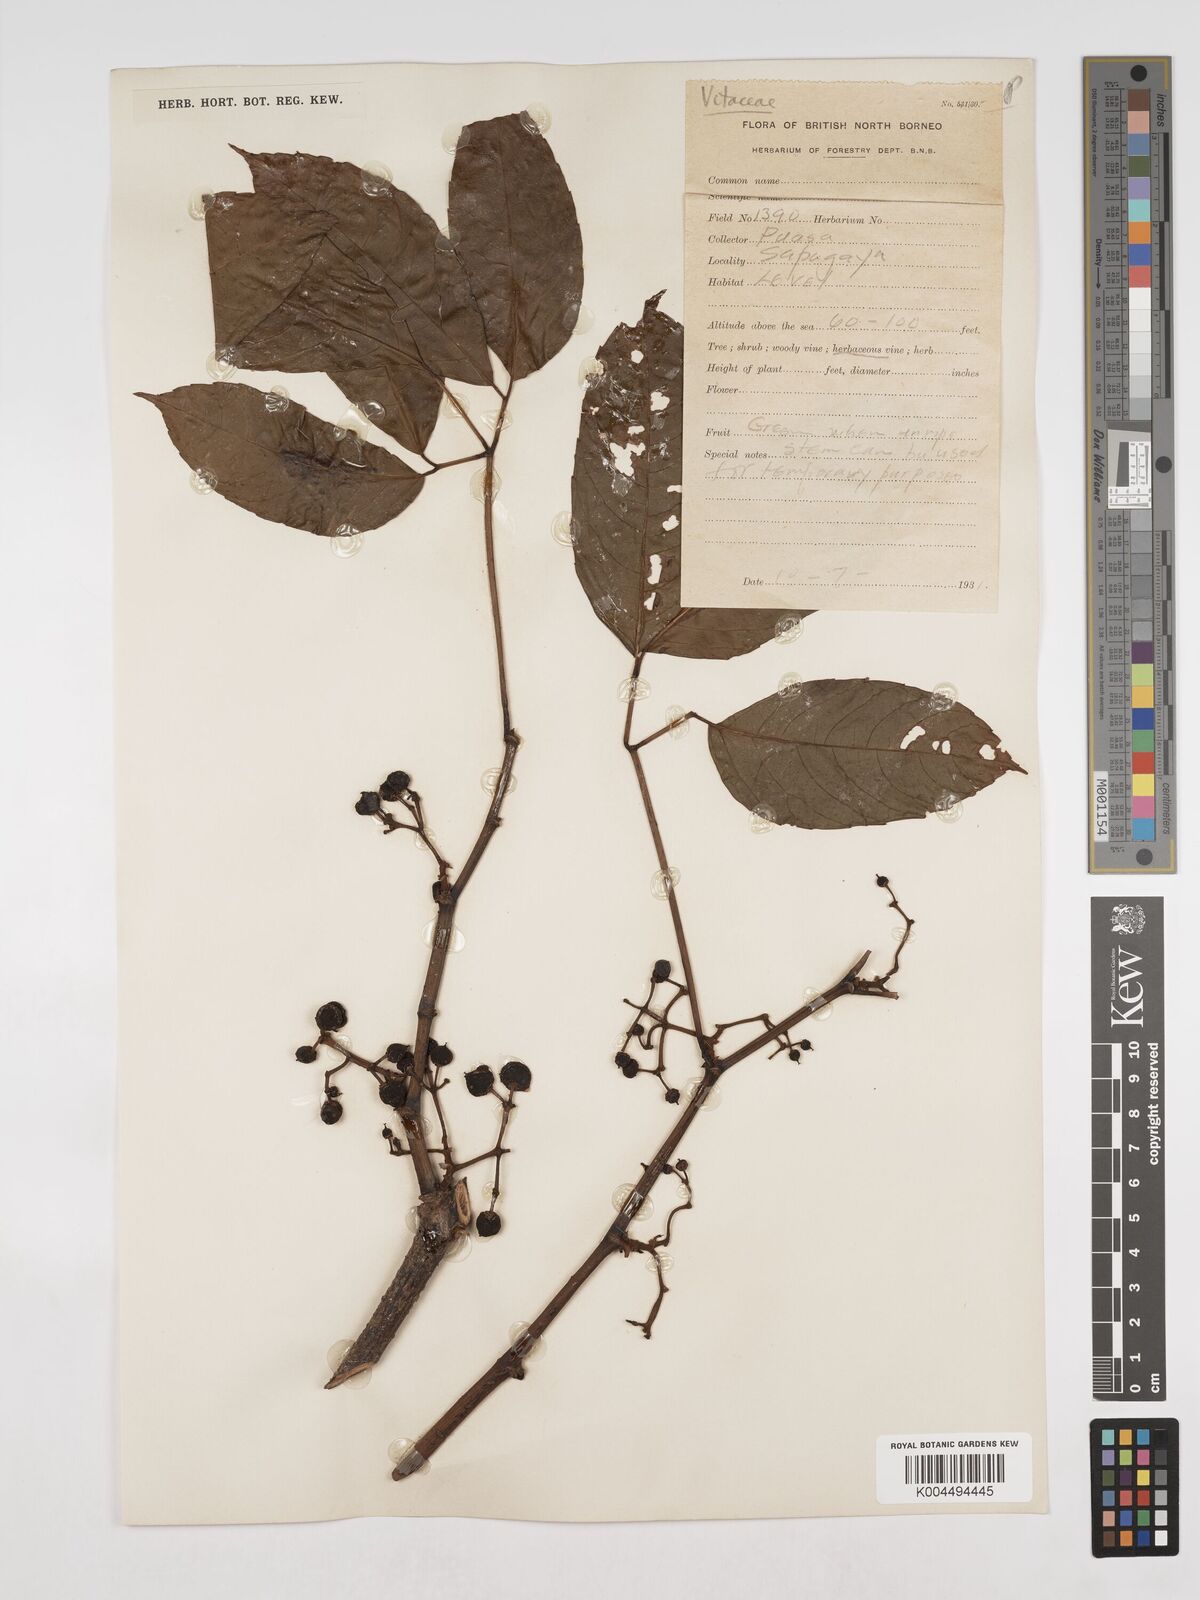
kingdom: Plantae
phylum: Tracheophyta
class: Magnoliopsida
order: Vitales
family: Vitaceae
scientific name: Vitaceae
